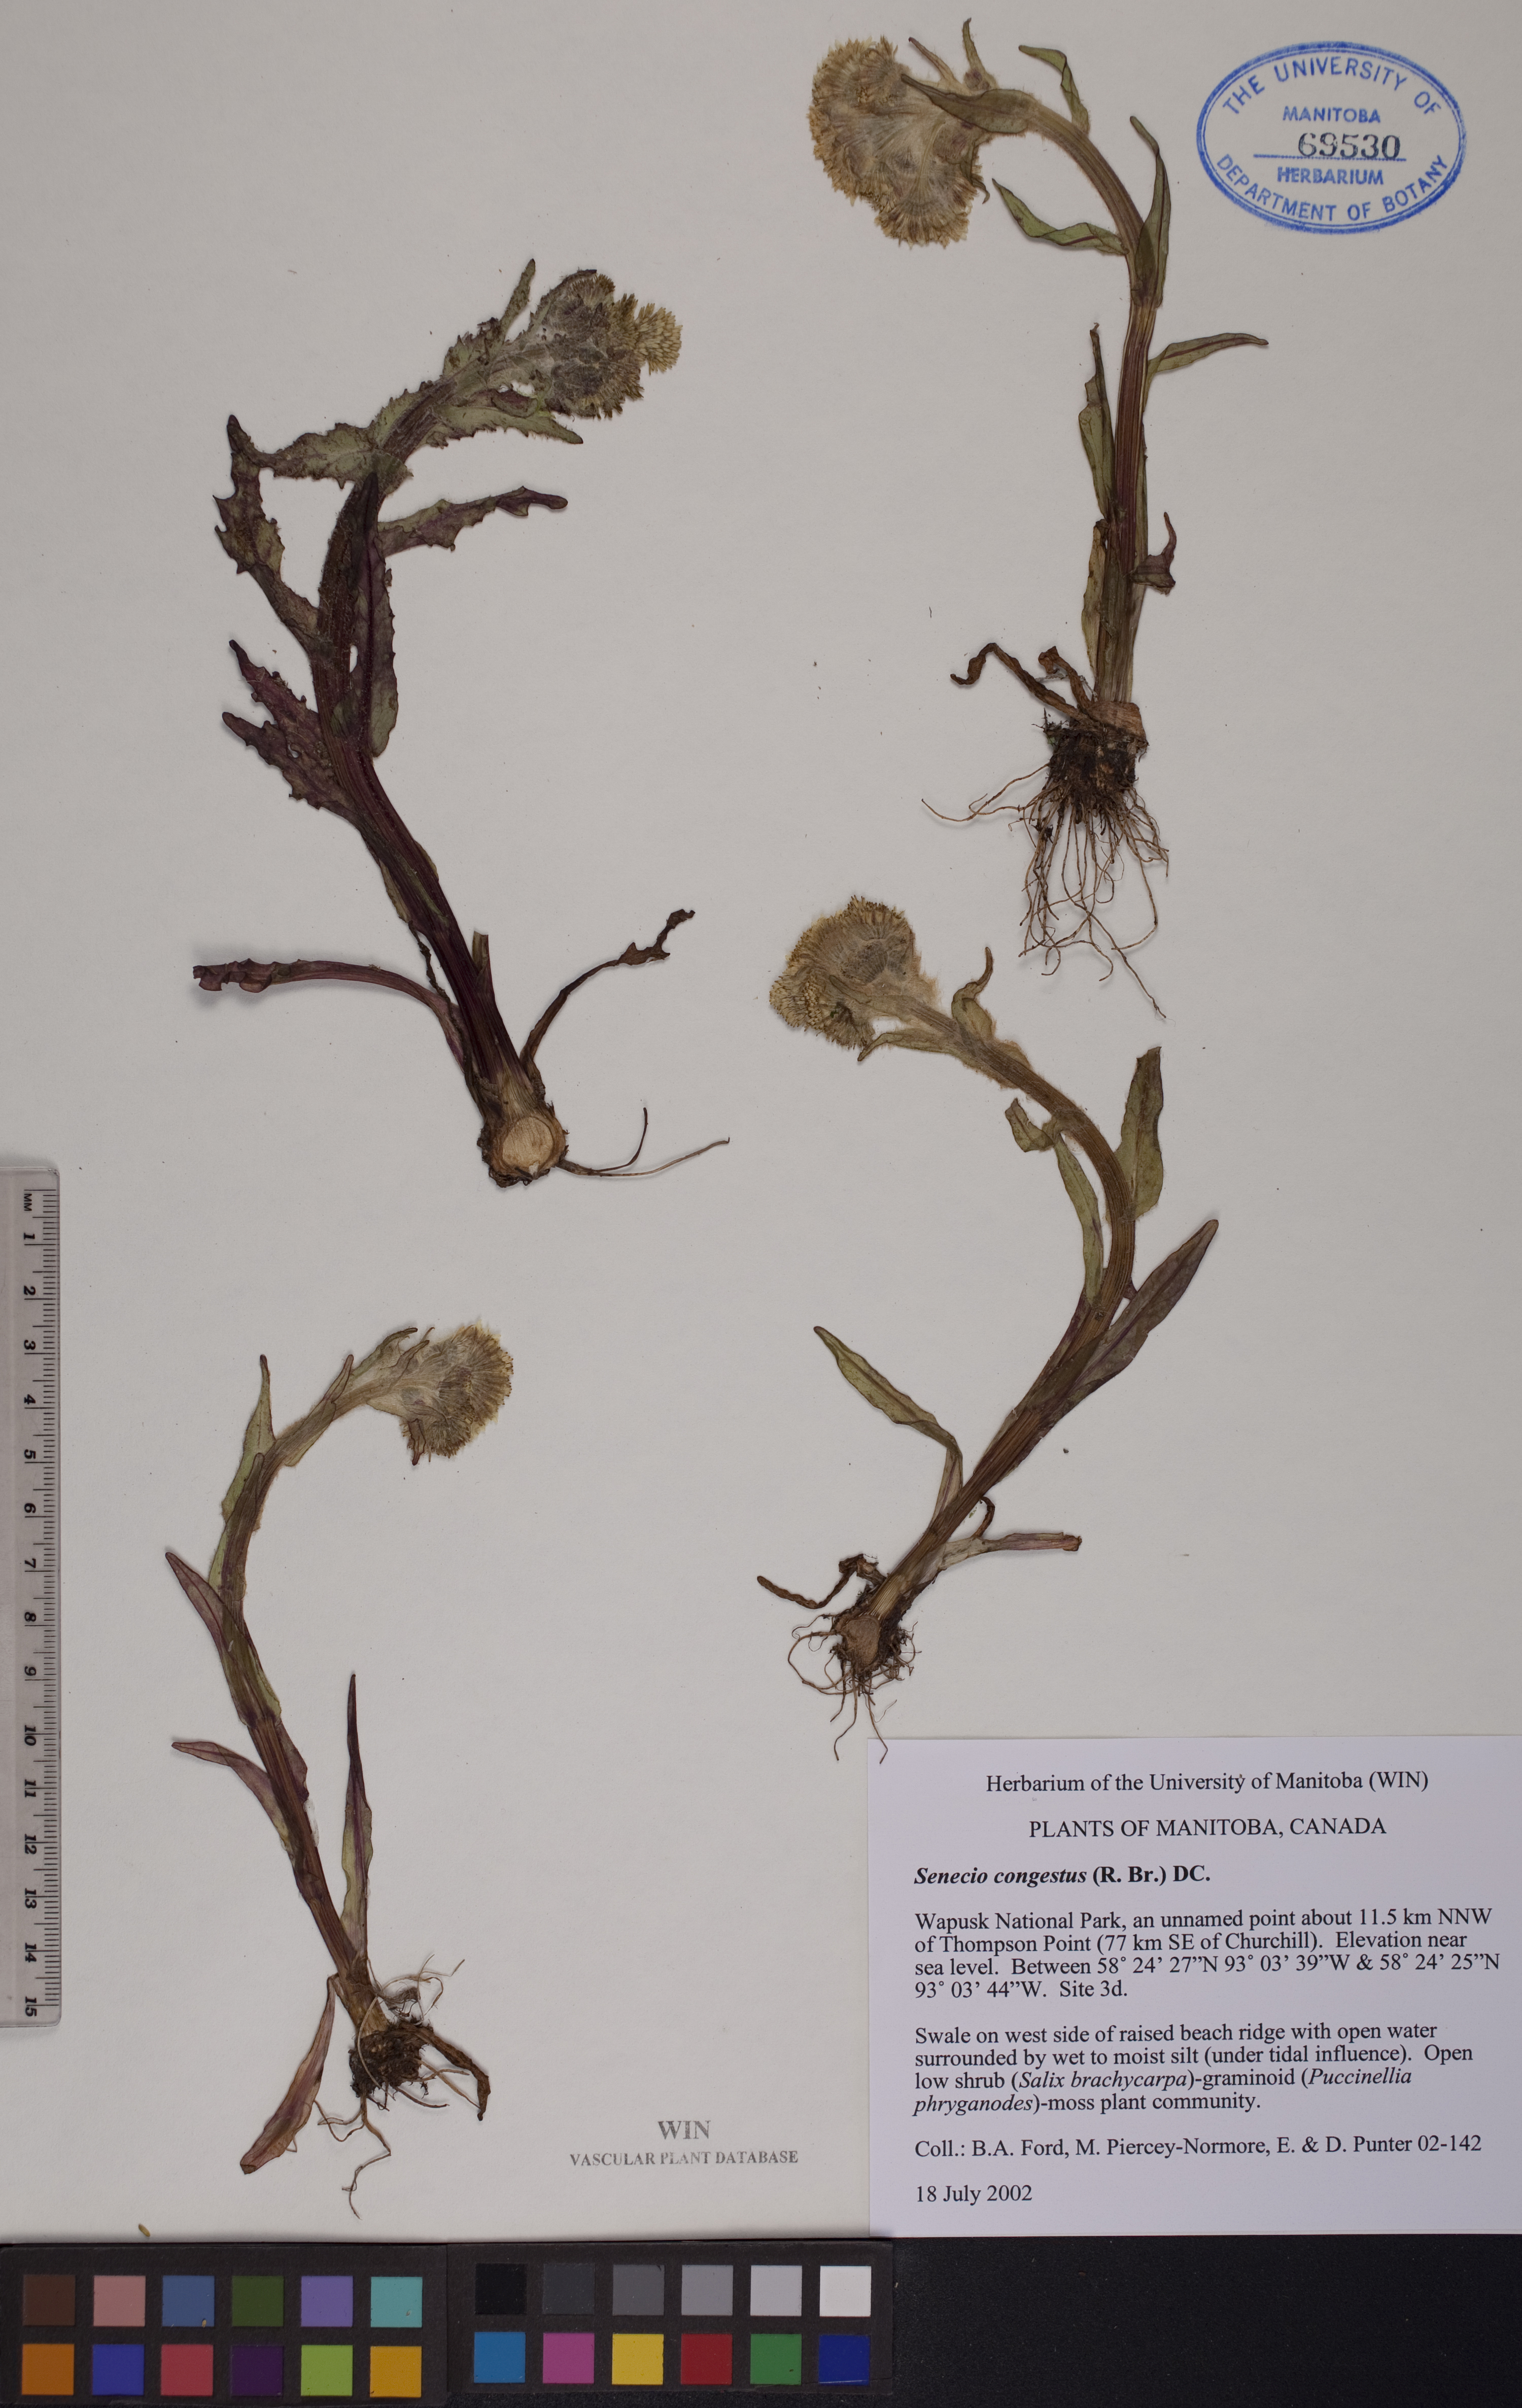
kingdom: Plantae
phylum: Tracheophyta
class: Magnoliopsida
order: Asterales
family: Asteraceae
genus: Tephroseris
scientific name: Tephroseris palustris
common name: Marsh fleawort
